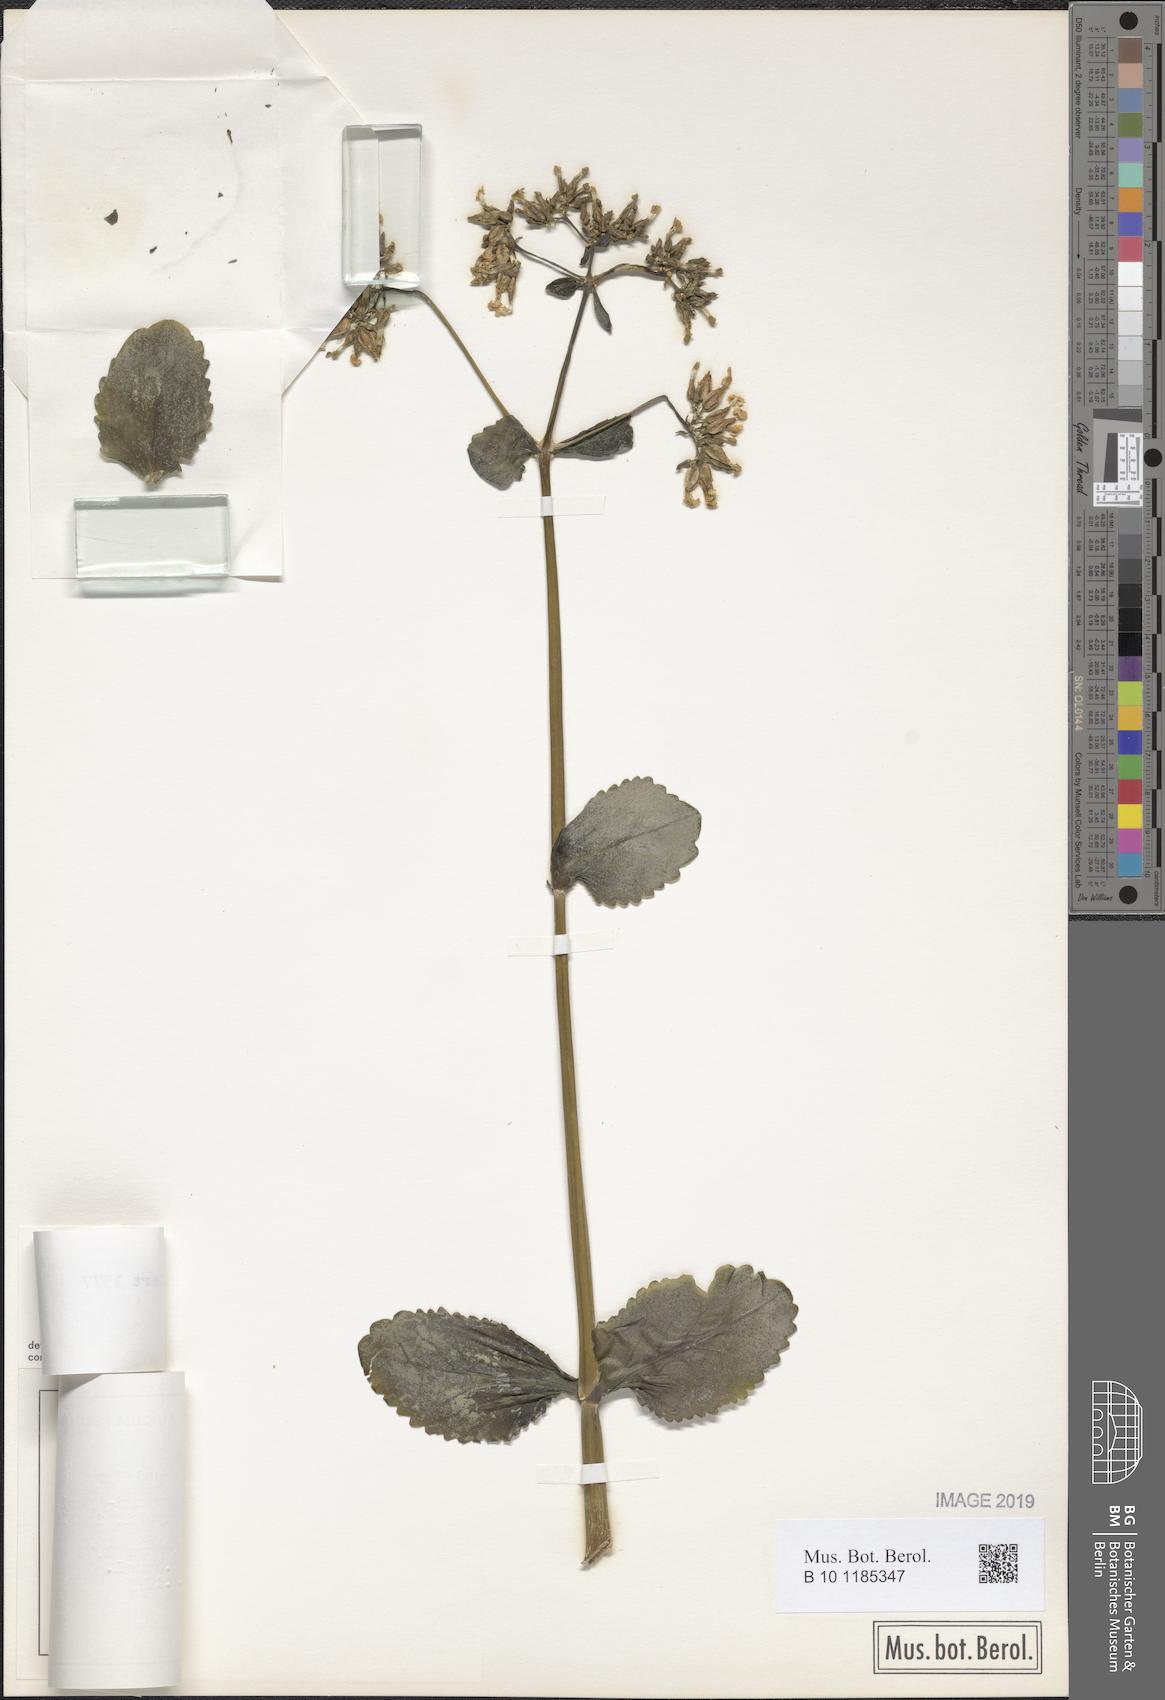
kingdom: Plantae
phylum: Tracheophyta
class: Magnoliopsida
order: Saxifragales
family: Crassulaceae
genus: Kalanchoe
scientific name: Kalanchoe densiflora
